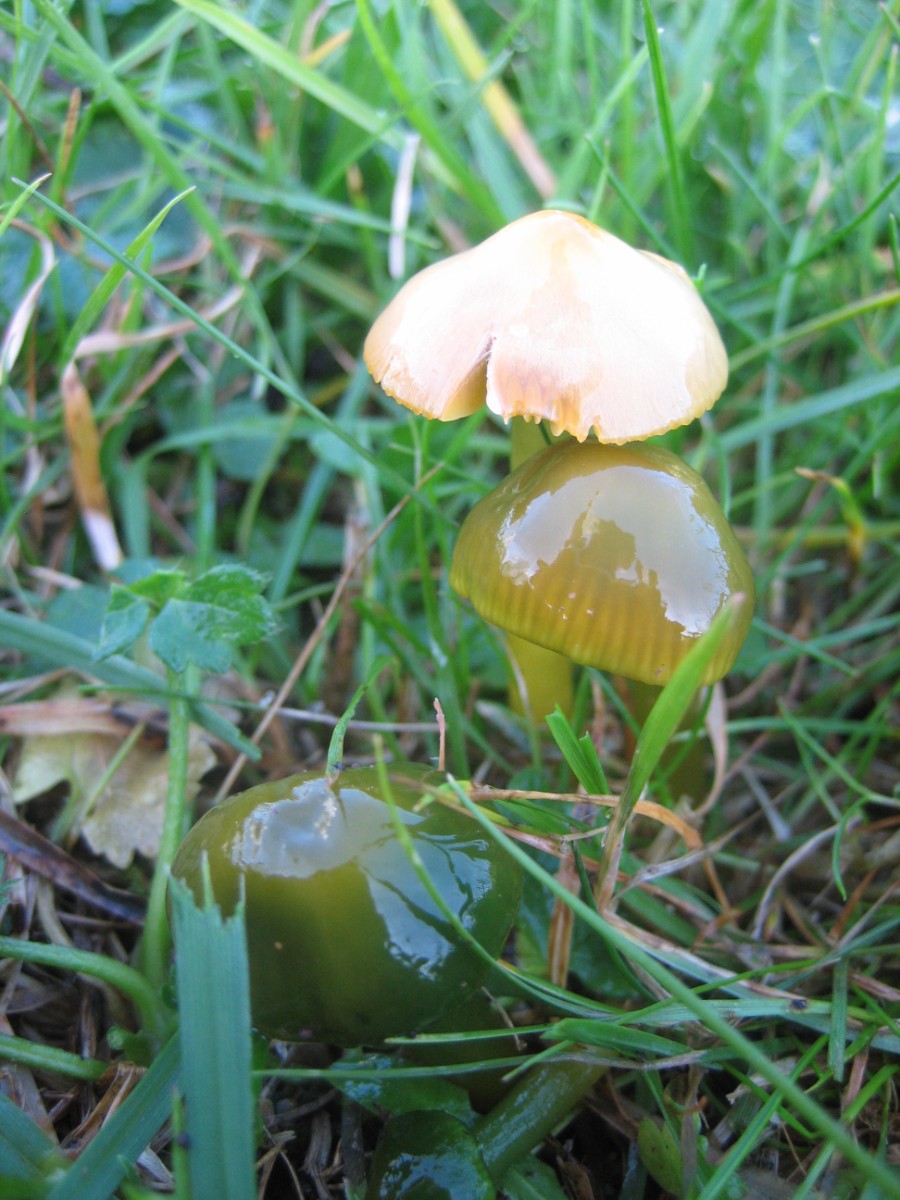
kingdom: Fungi
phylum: Basidiomycota
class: Agaricomycetes
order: Agaricales
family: Hygrophoraceae
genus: Gliophorus
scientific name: Gliophorus psittacinus
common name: papegøje-vokshat
